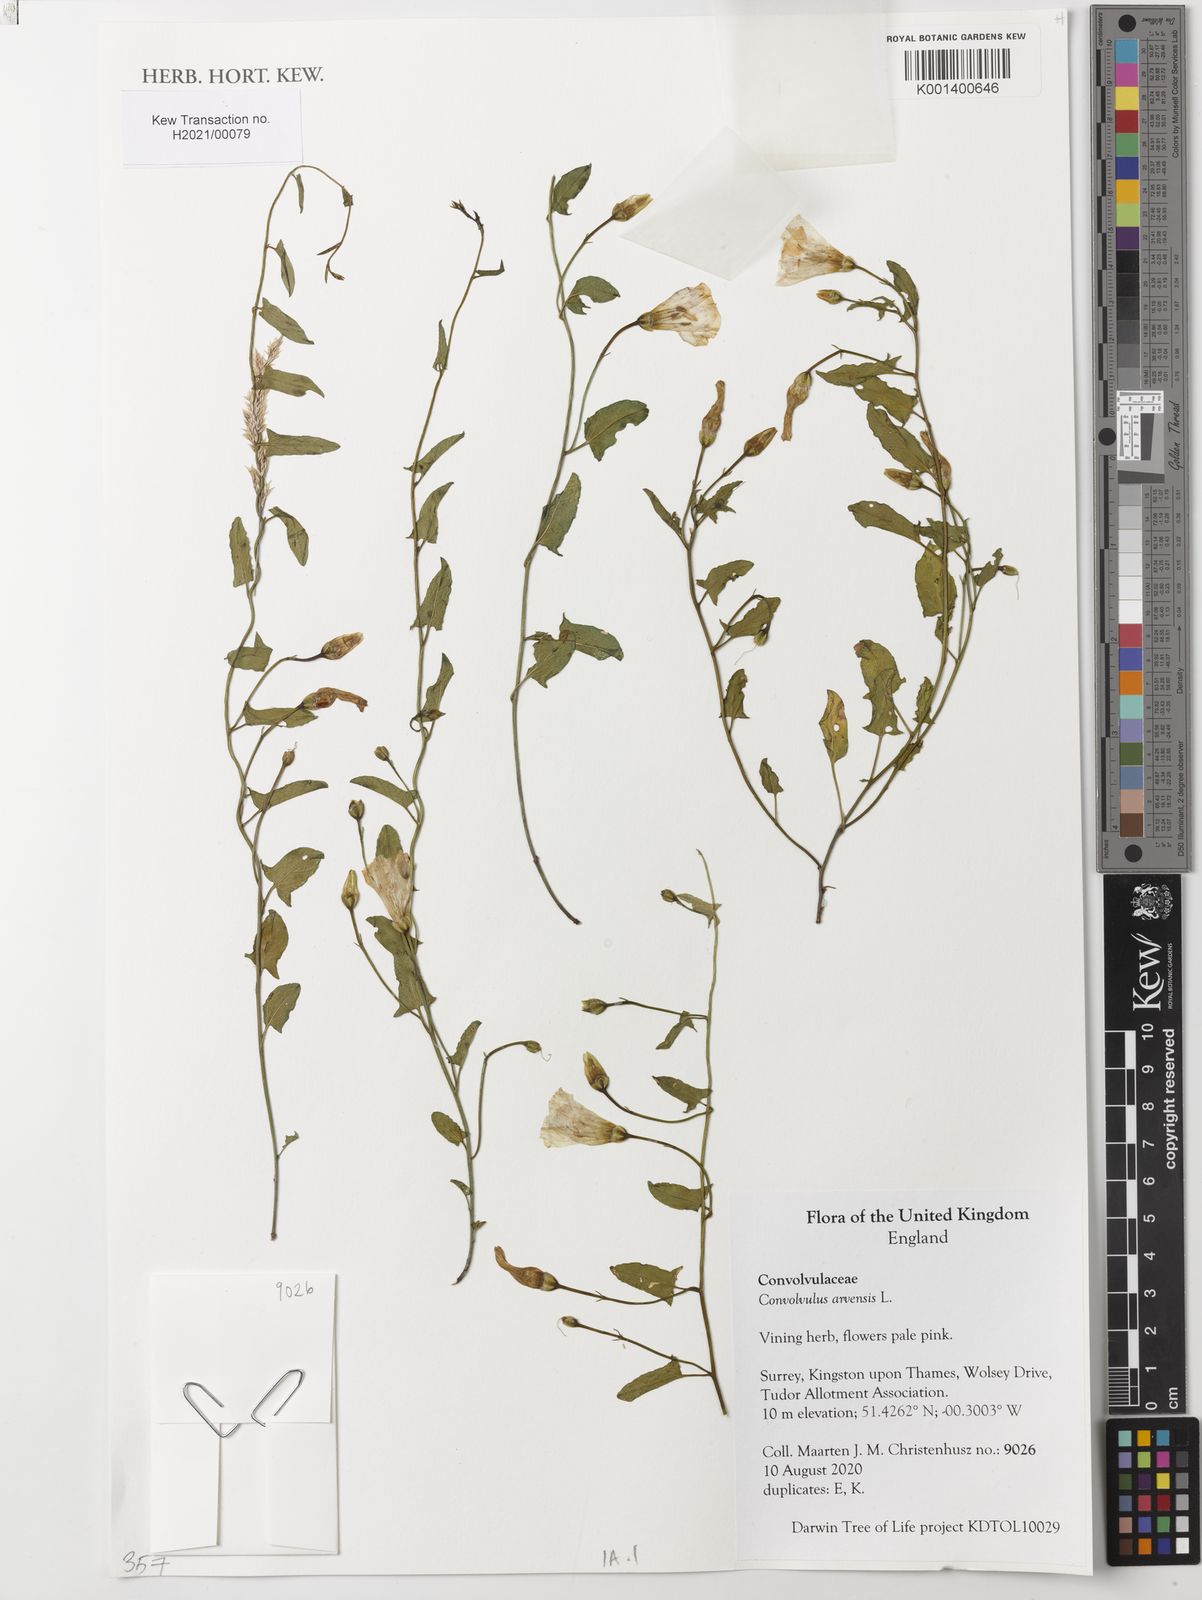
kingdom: Plantae
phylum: Tracheophyta
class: Magnoliopsida
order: Solanales
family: Convolvulaceae
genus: Convolvulus
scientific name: Convolvulus arvensis
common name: Field bindweed
